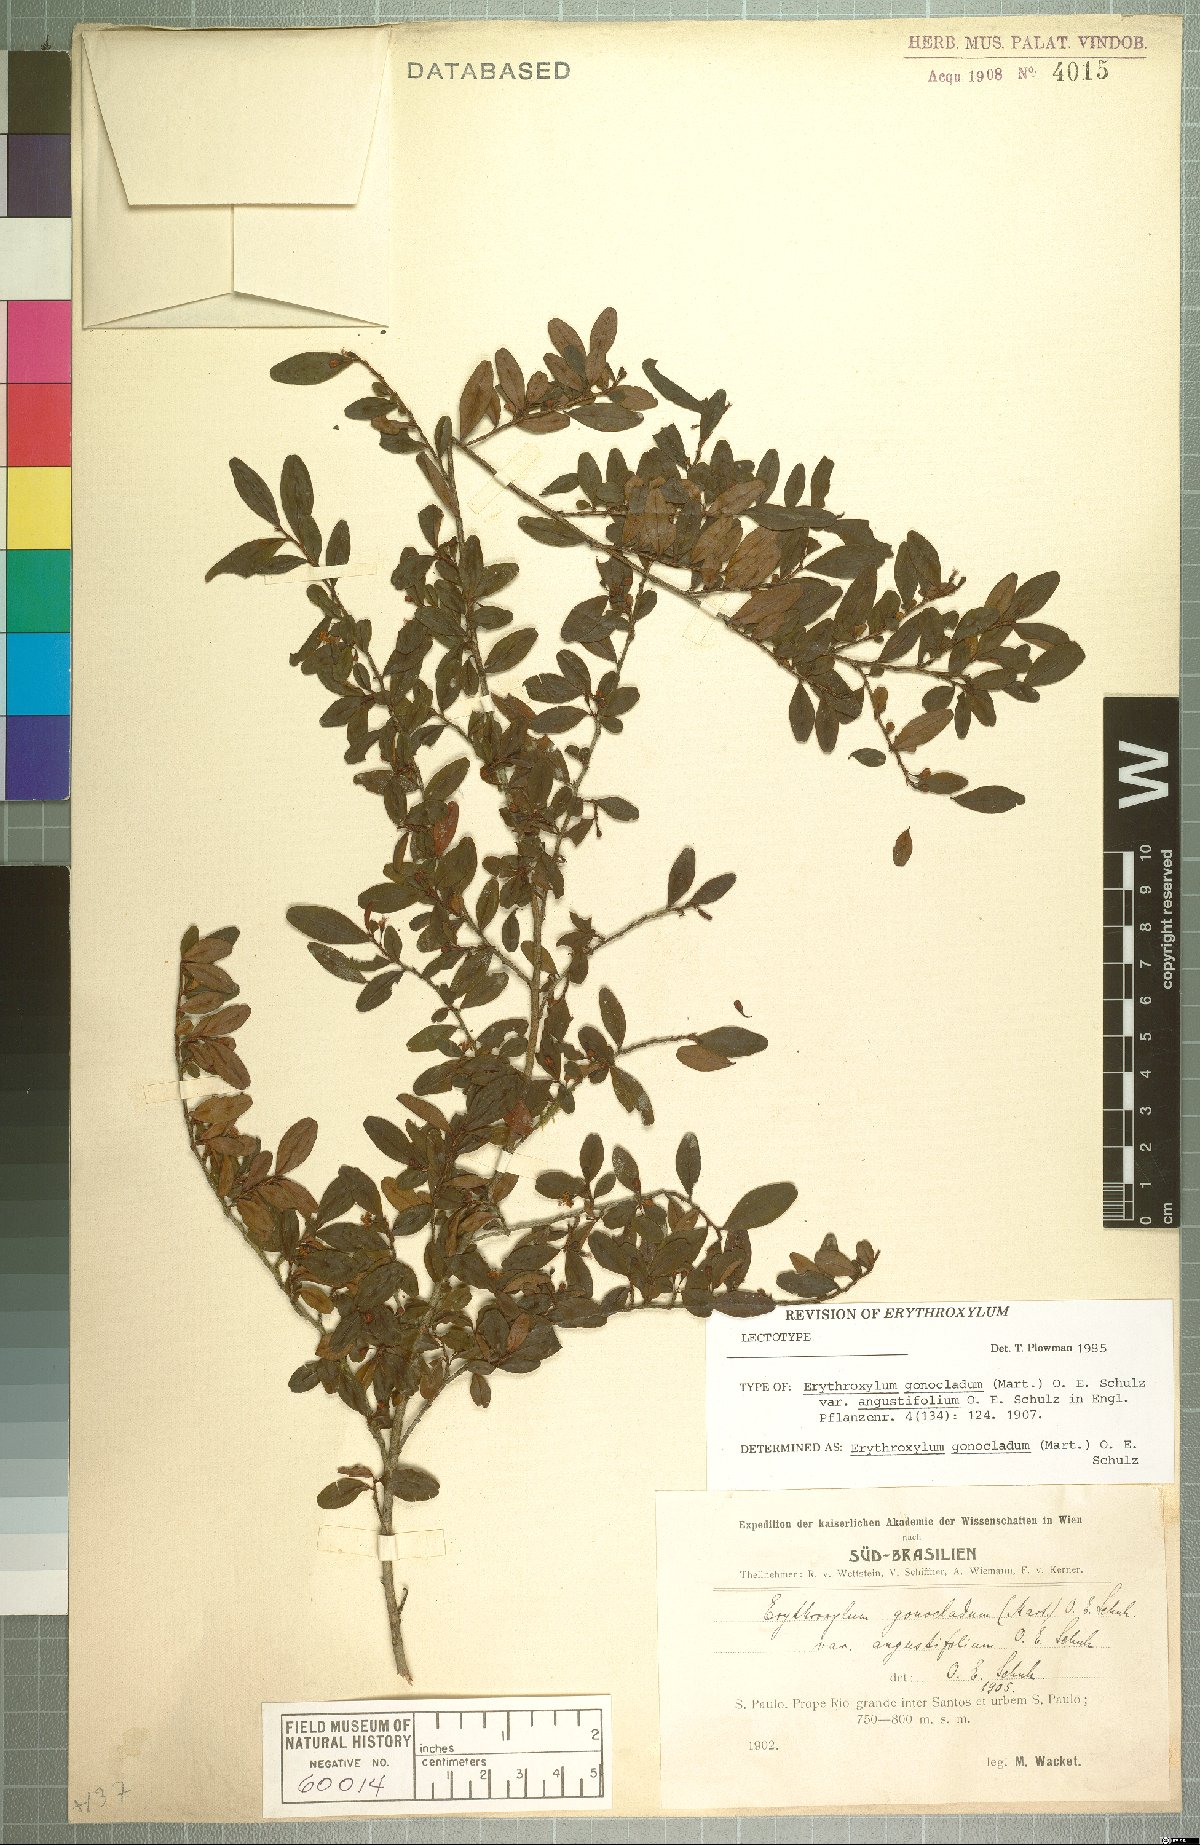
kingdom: Plantae
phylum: Tracheophyta
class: Magnoliopsida
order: Malpighiales
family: Erythroxylaceae
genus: Erythroxylum
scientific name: Erythroxylum gonocladum
